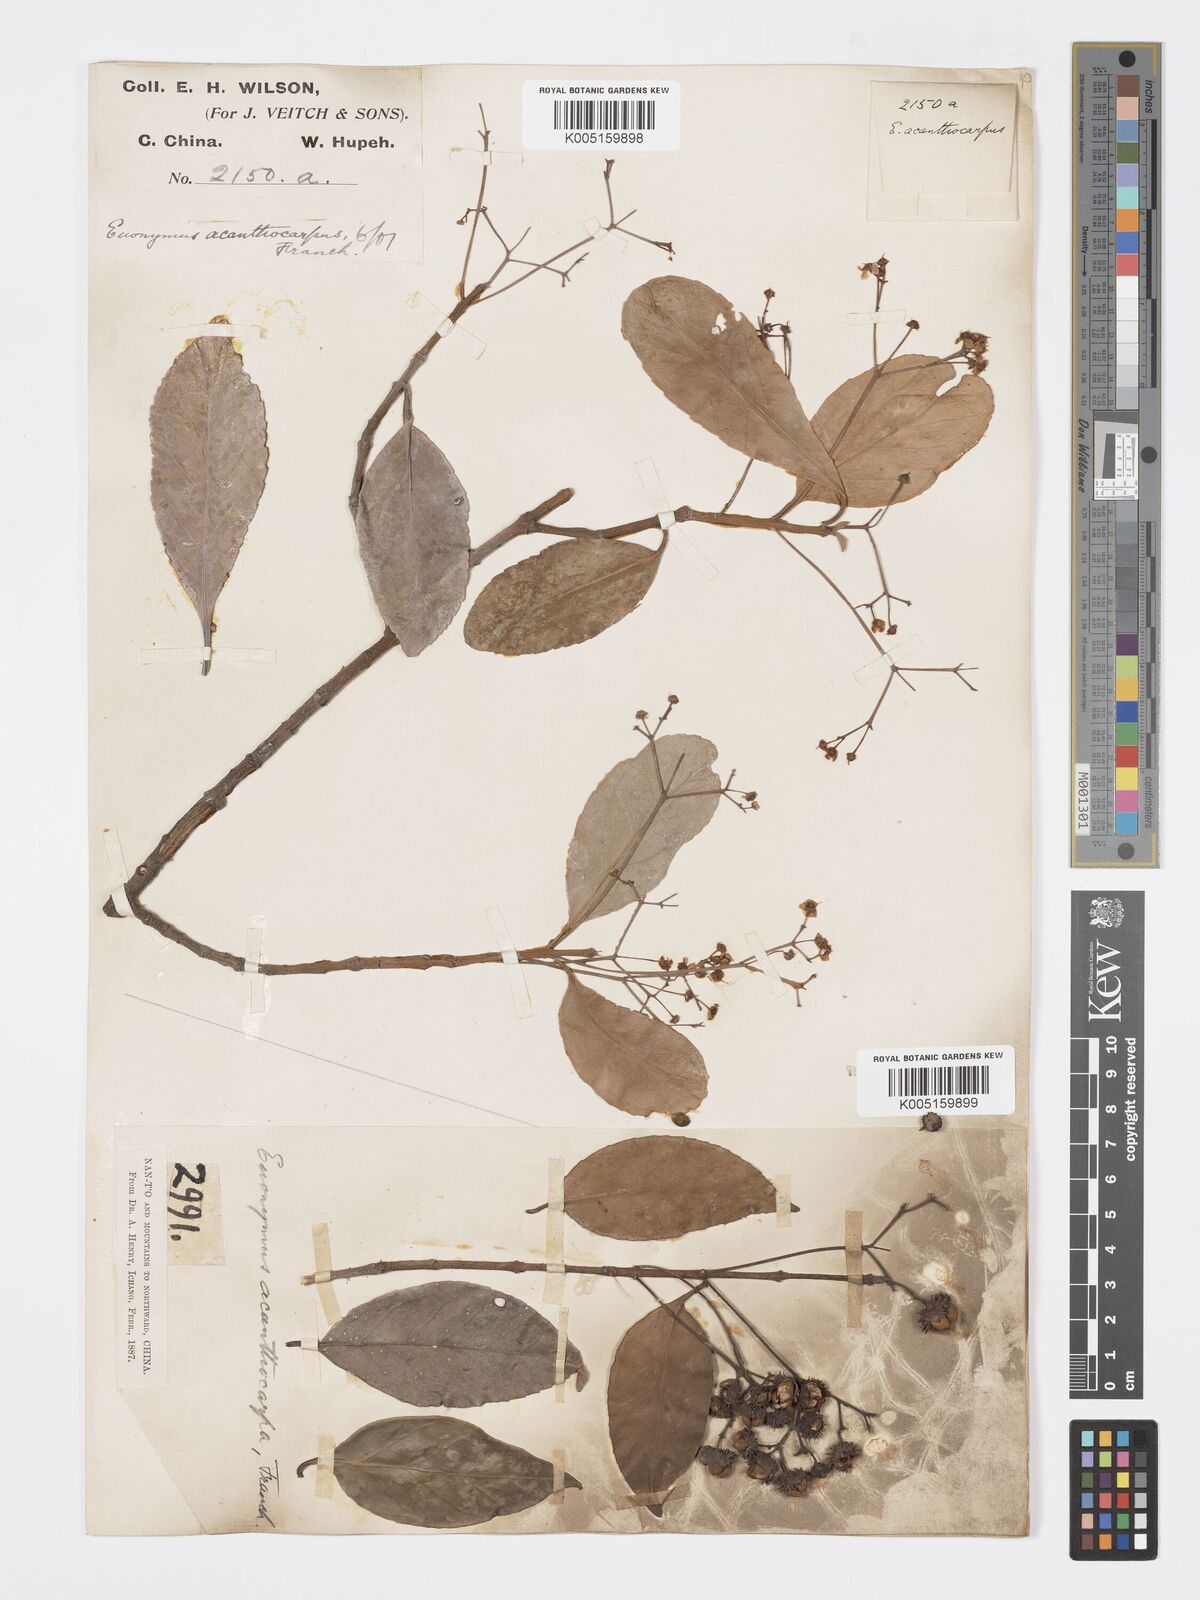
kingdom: Plantae
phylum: Tracheophyta
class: Magnoliopsida
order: Celastrales
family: Celastraceae
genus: Euonymus
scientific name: Euonymus acanthocarpus
